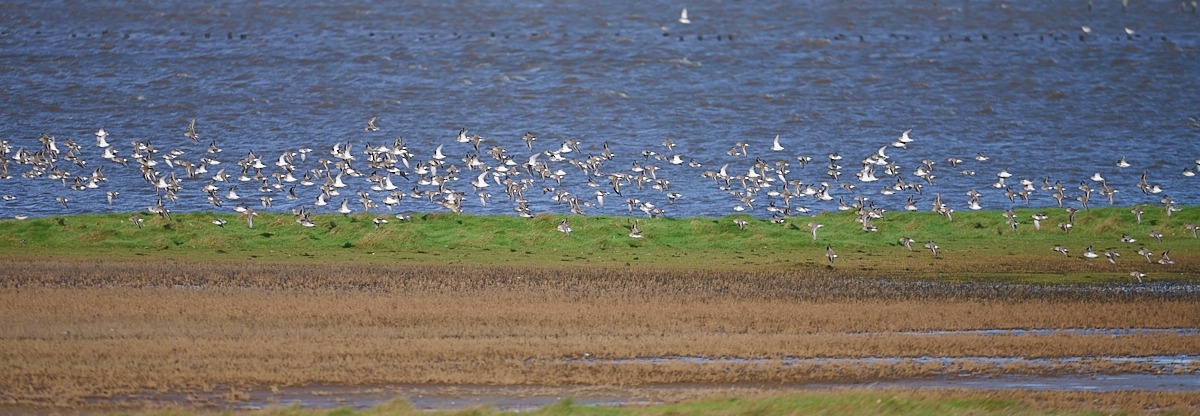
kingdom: Animalia
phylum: Chordata
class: Aves
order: Charadriiformes
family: Scolopacidae
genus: Calidris
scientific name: Calidris alpina
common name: Almindelig ryle
